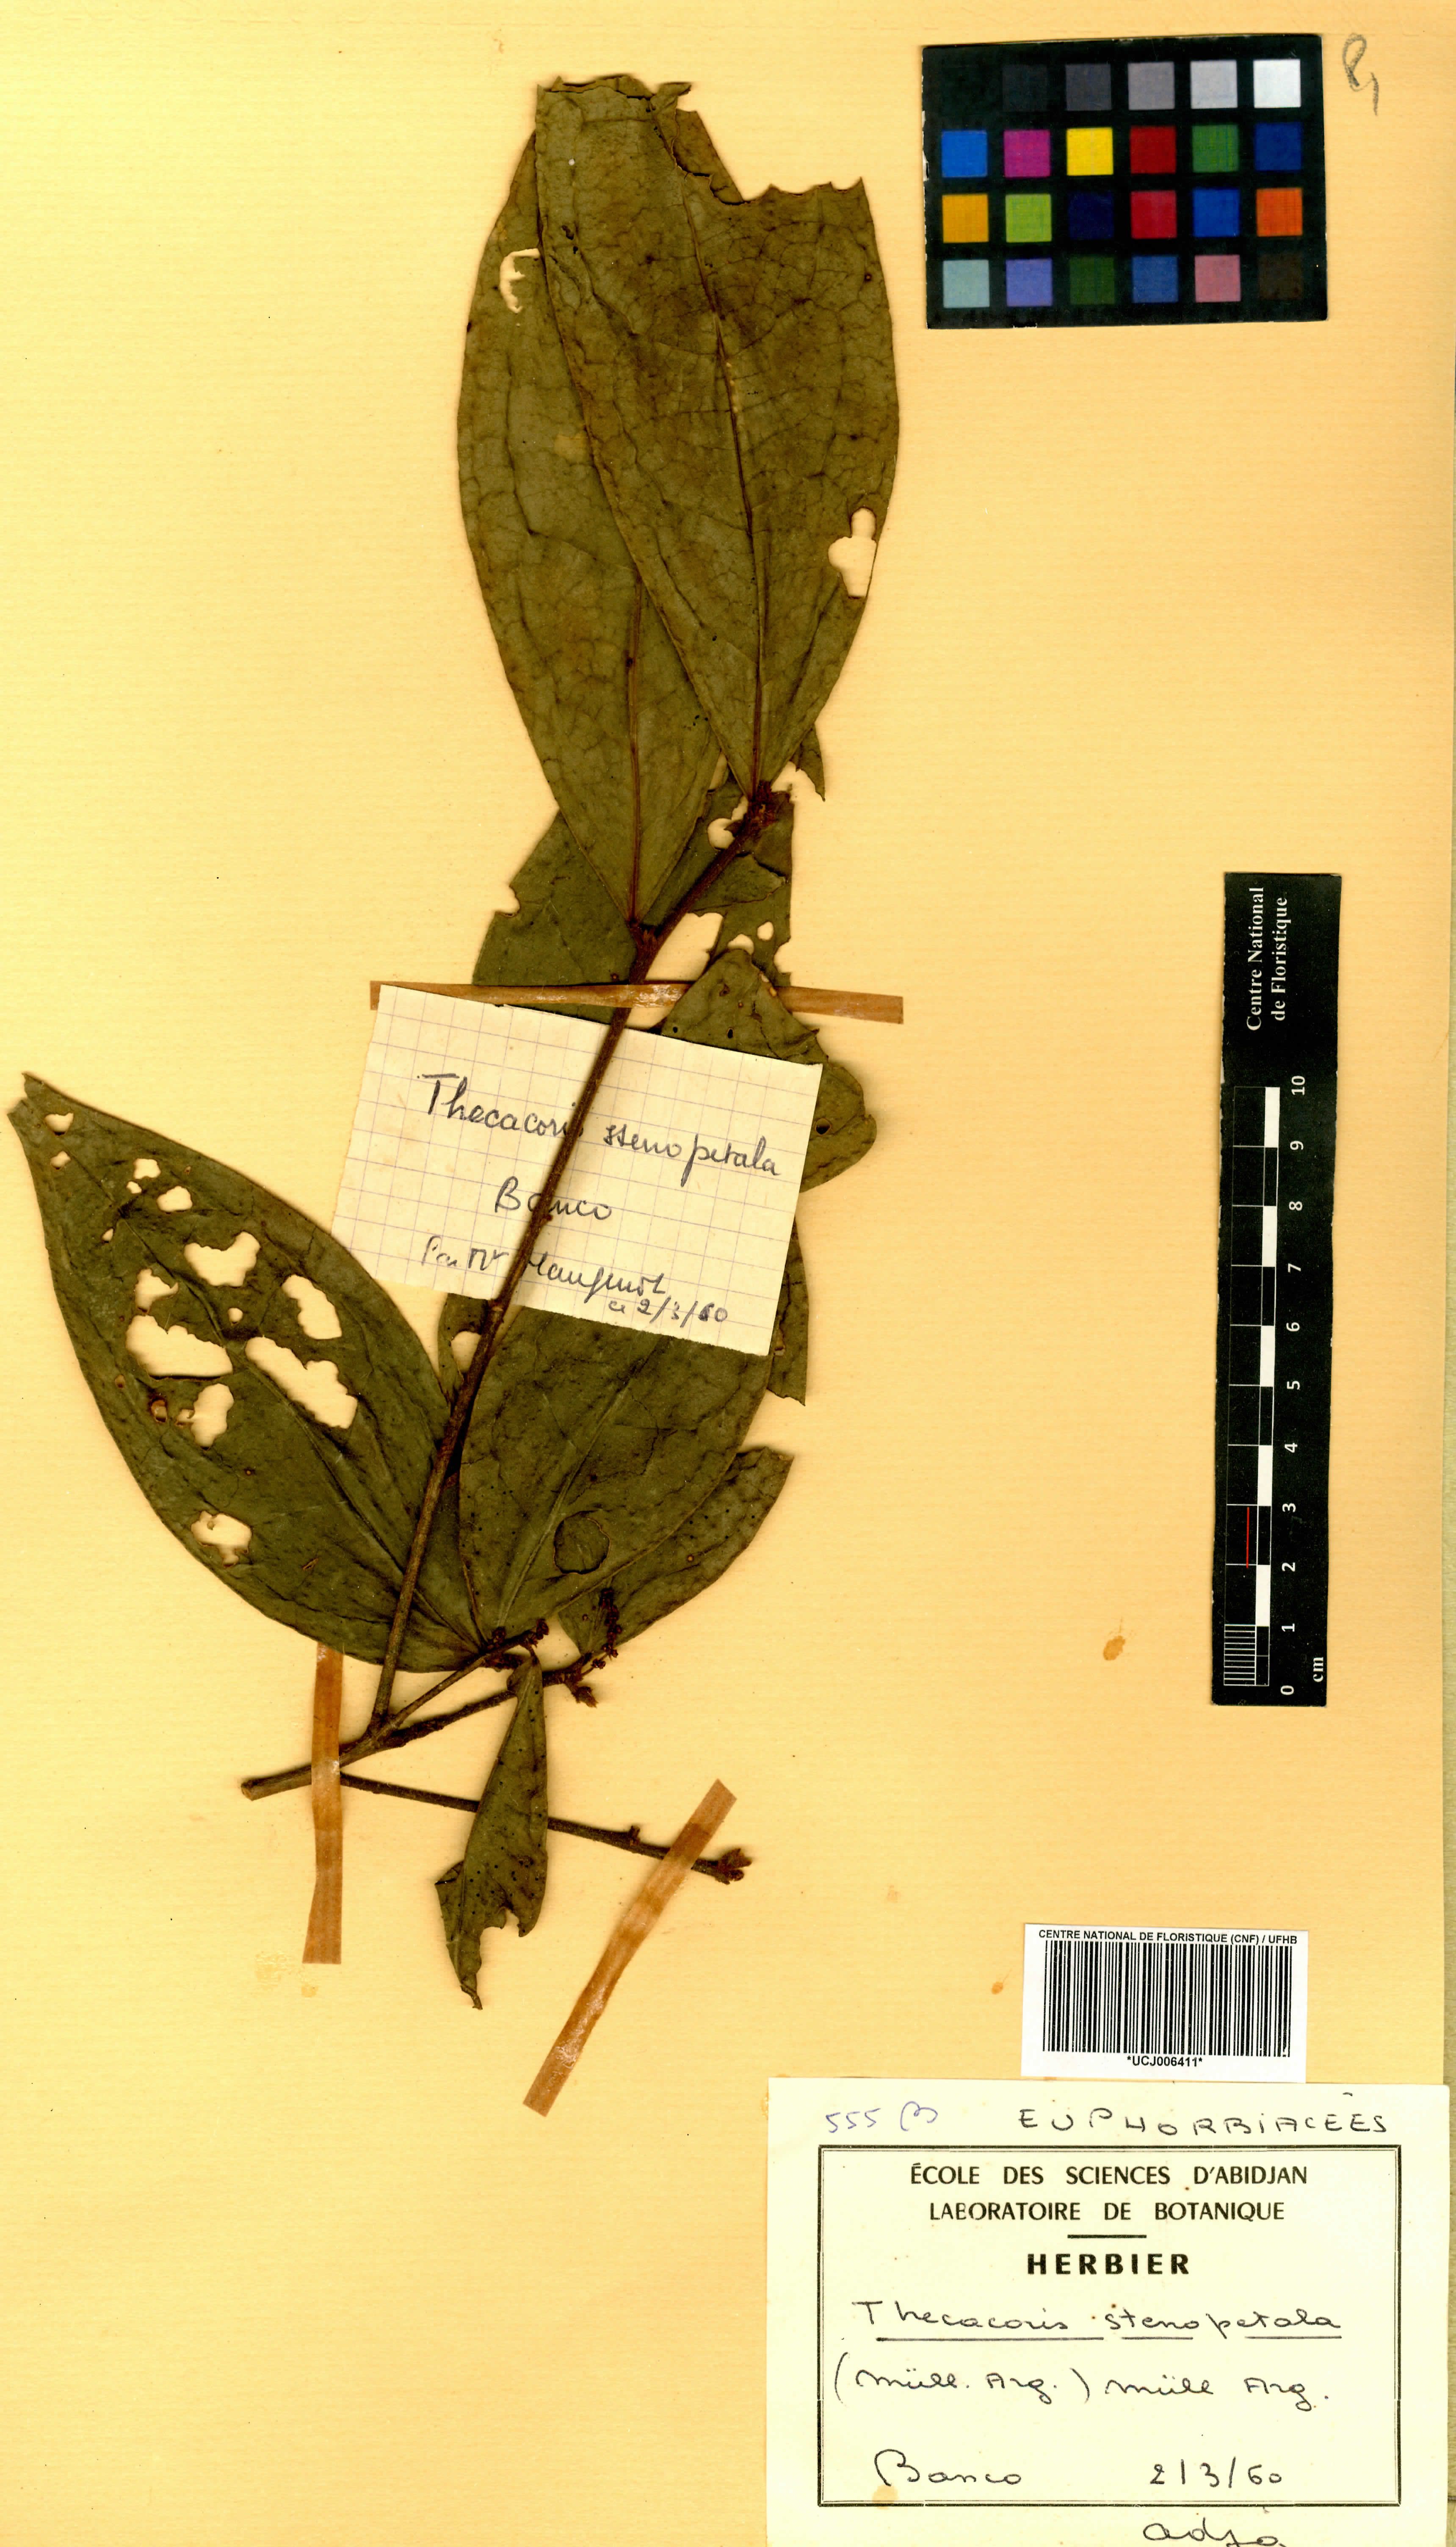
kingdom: Plantae
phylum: Tracheophyta
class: Magnoliopsida
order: Malpighiales
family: Phyllanthaceae
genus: Thecacoris
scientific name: Thecacoris stenopetala
